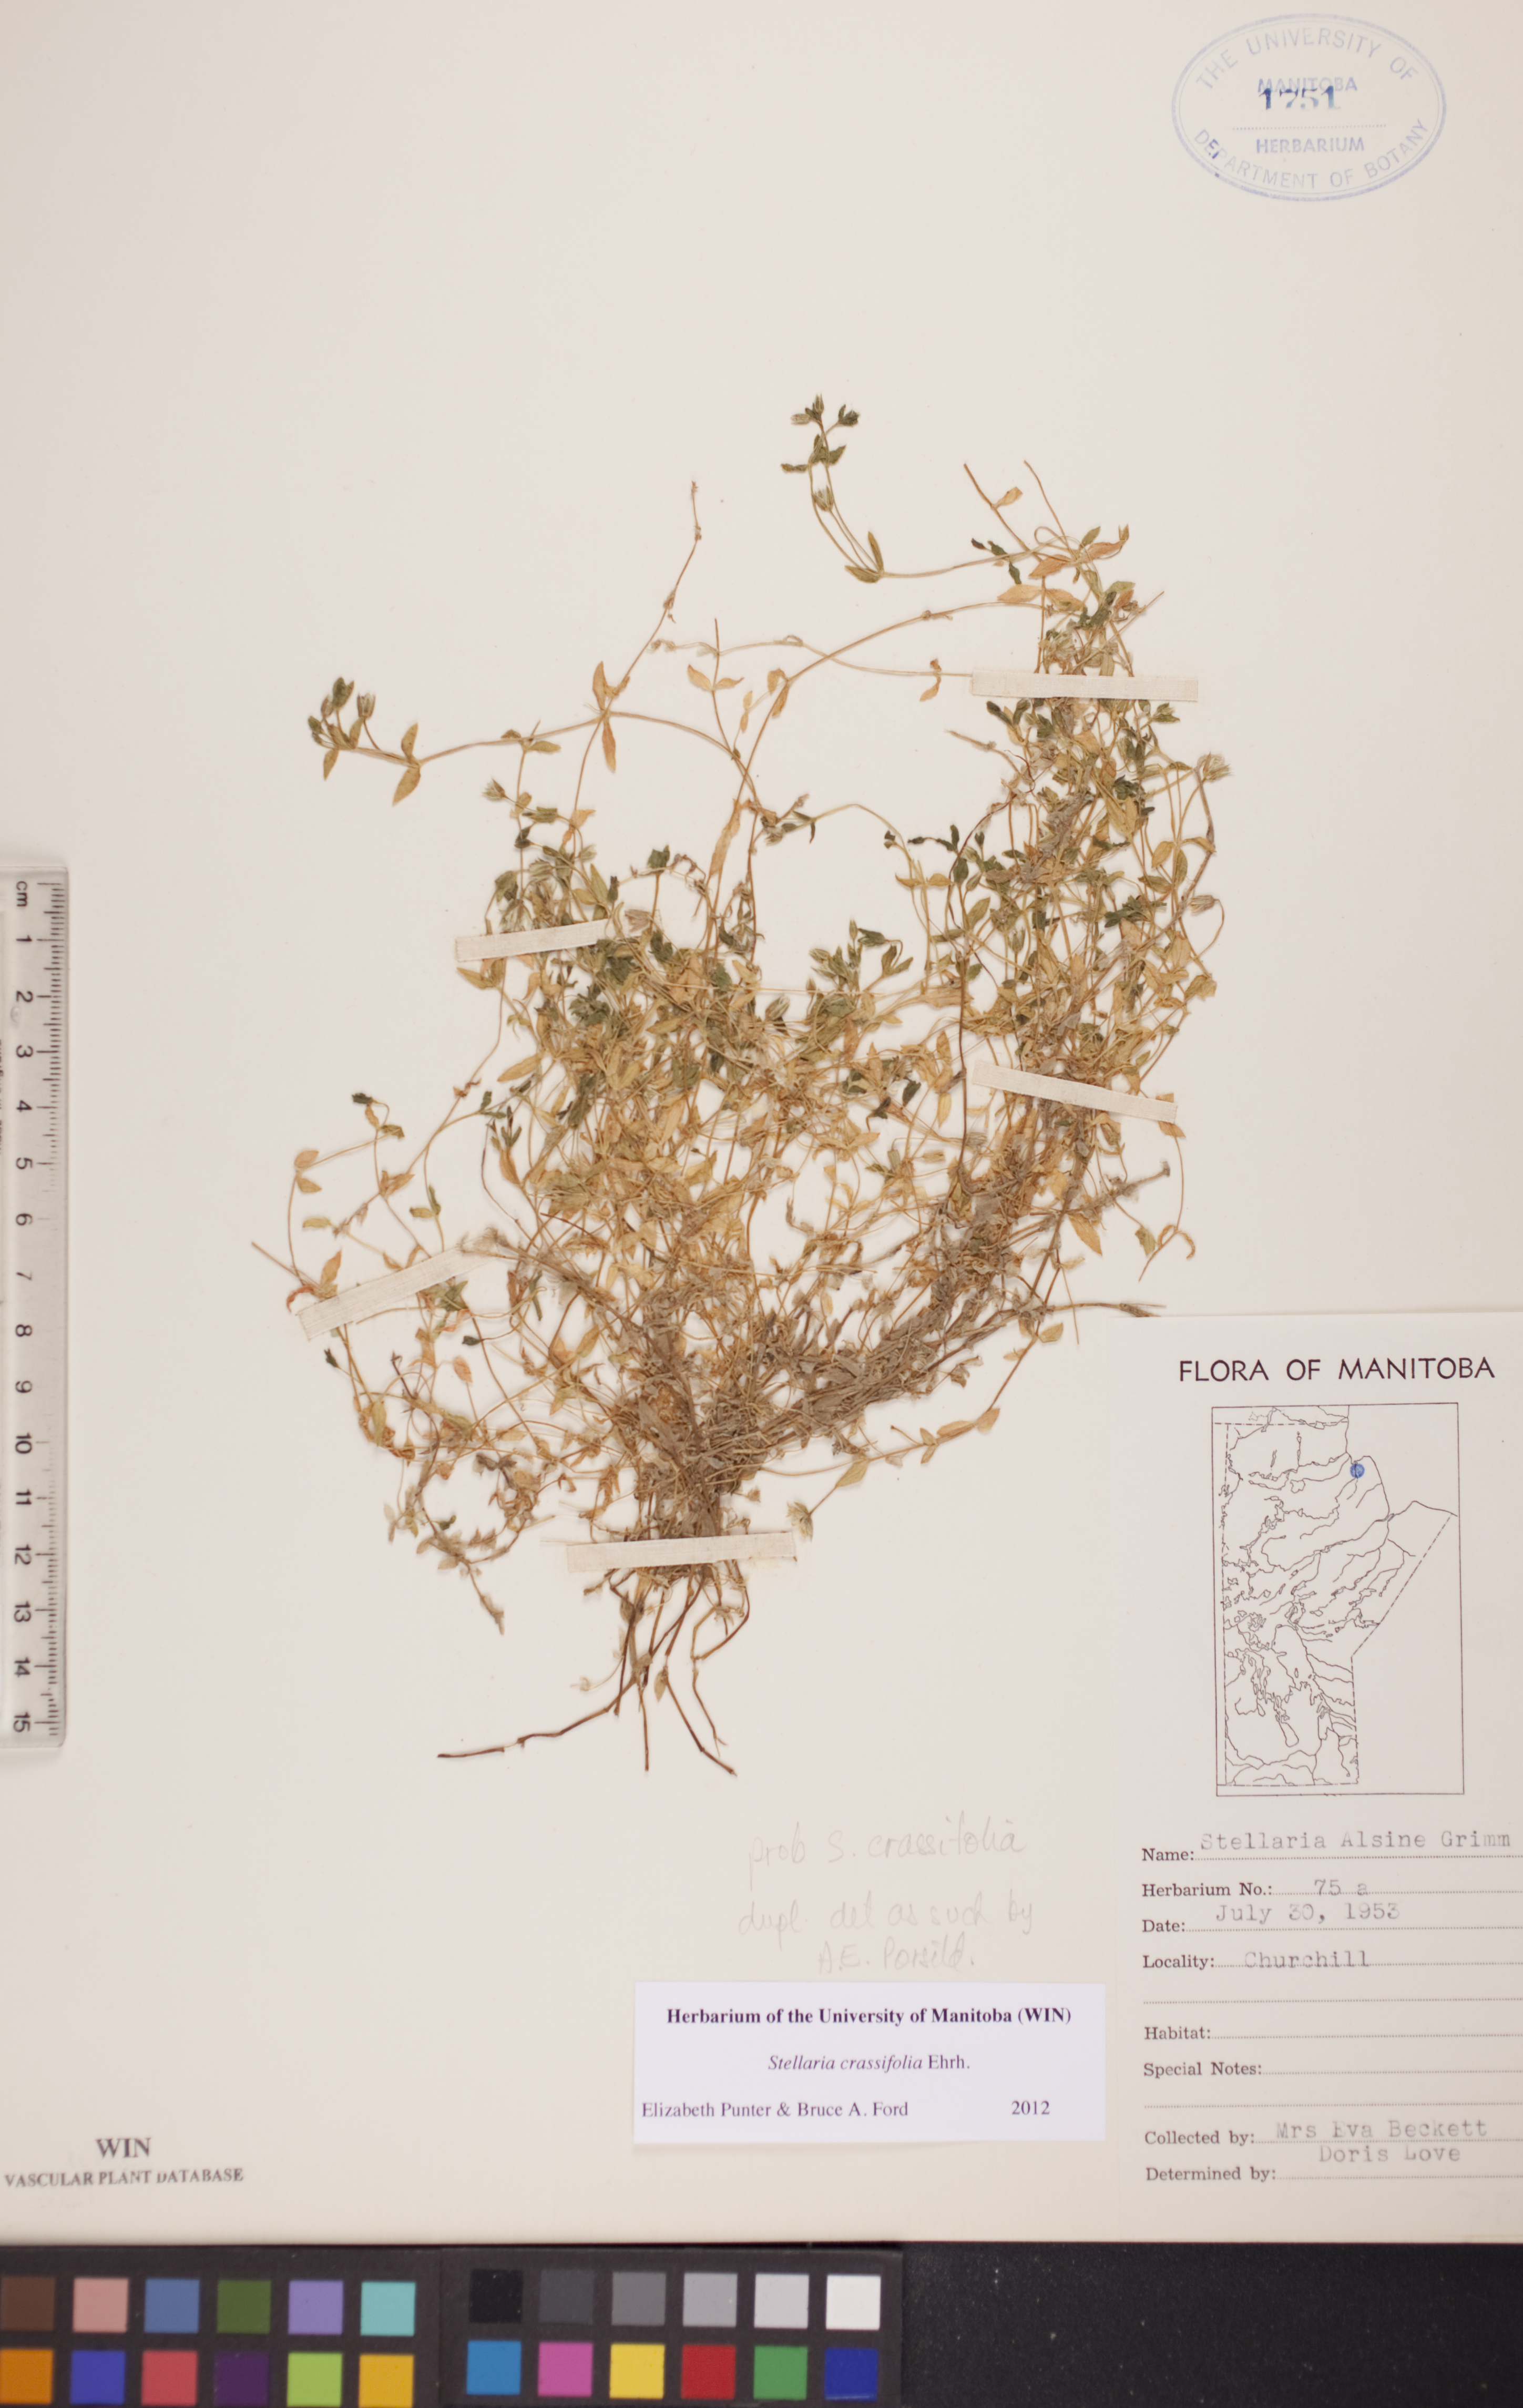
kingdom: Plantae
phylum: Tracheophyta
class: Magnoliopsida
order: Caryophyllales
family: Caryophyllaceae
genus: Stellaria
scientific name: Stellaria crassifolia
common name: Fleshy starwort
